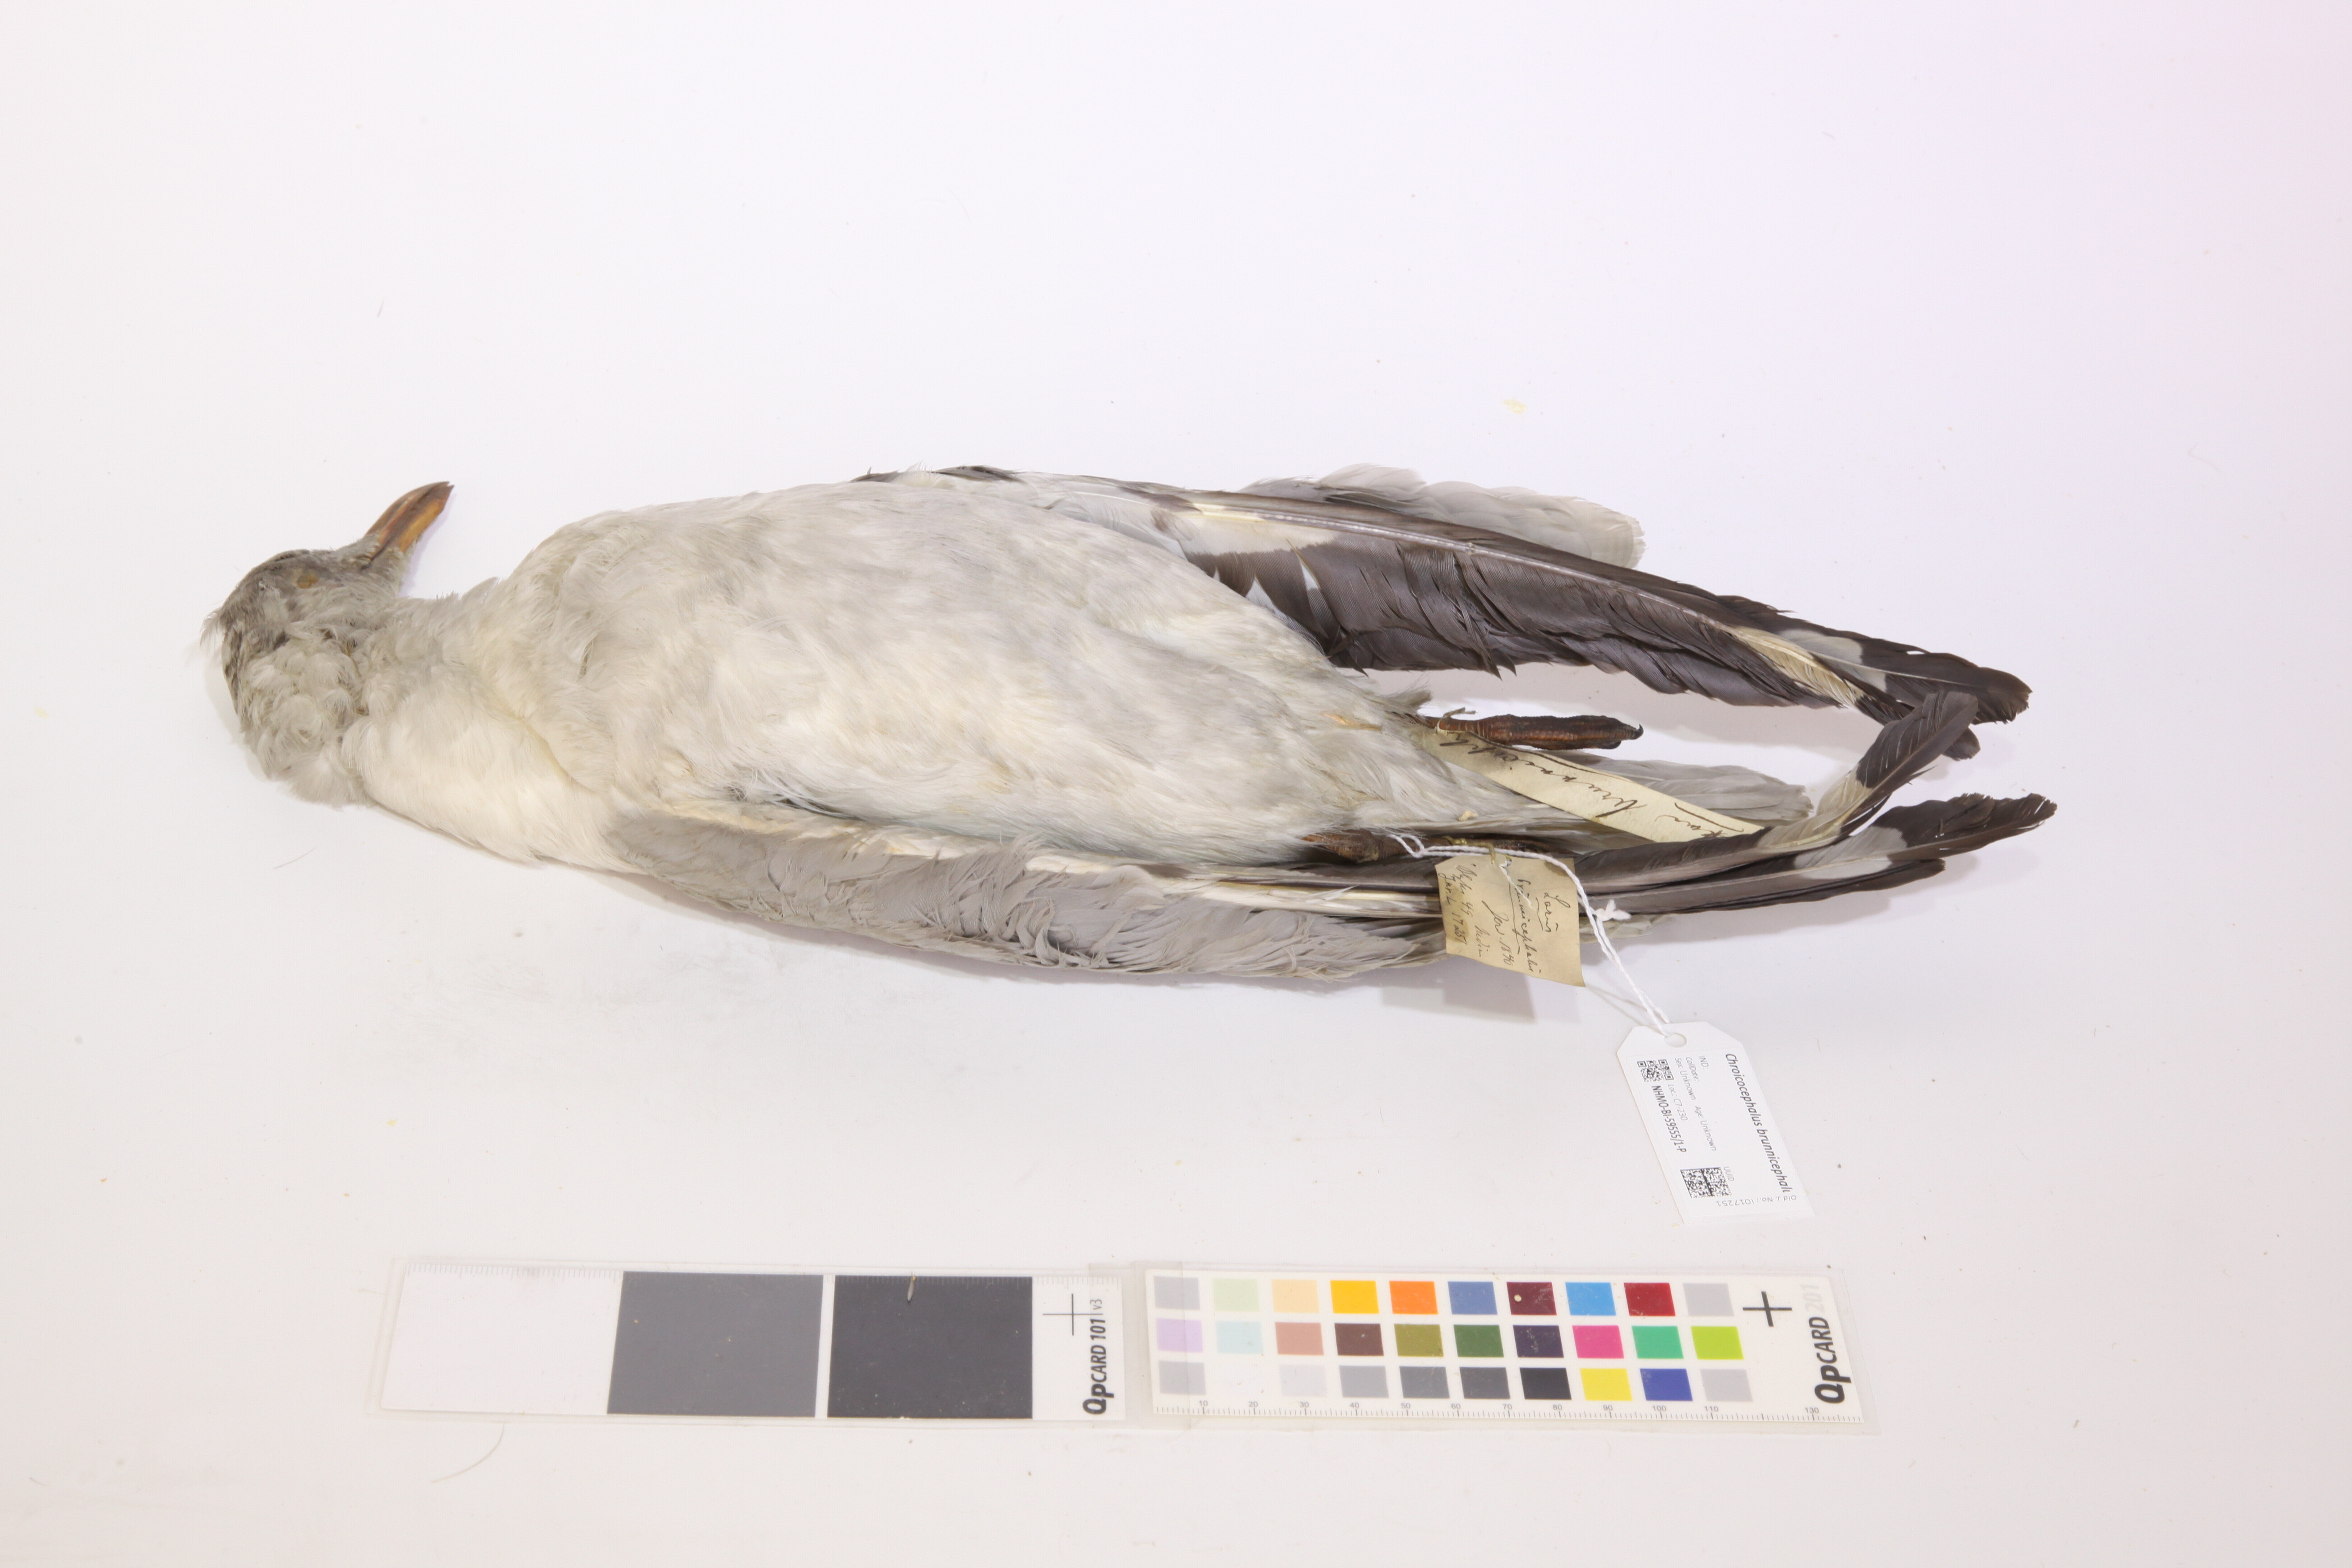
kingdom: Animalia
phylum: Chordata
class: Aves
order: Charadriiformes
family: Laridae
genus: Chroicocephalus
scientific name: Chroicocephalus brunnicephalus
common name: Brown-headed gull
